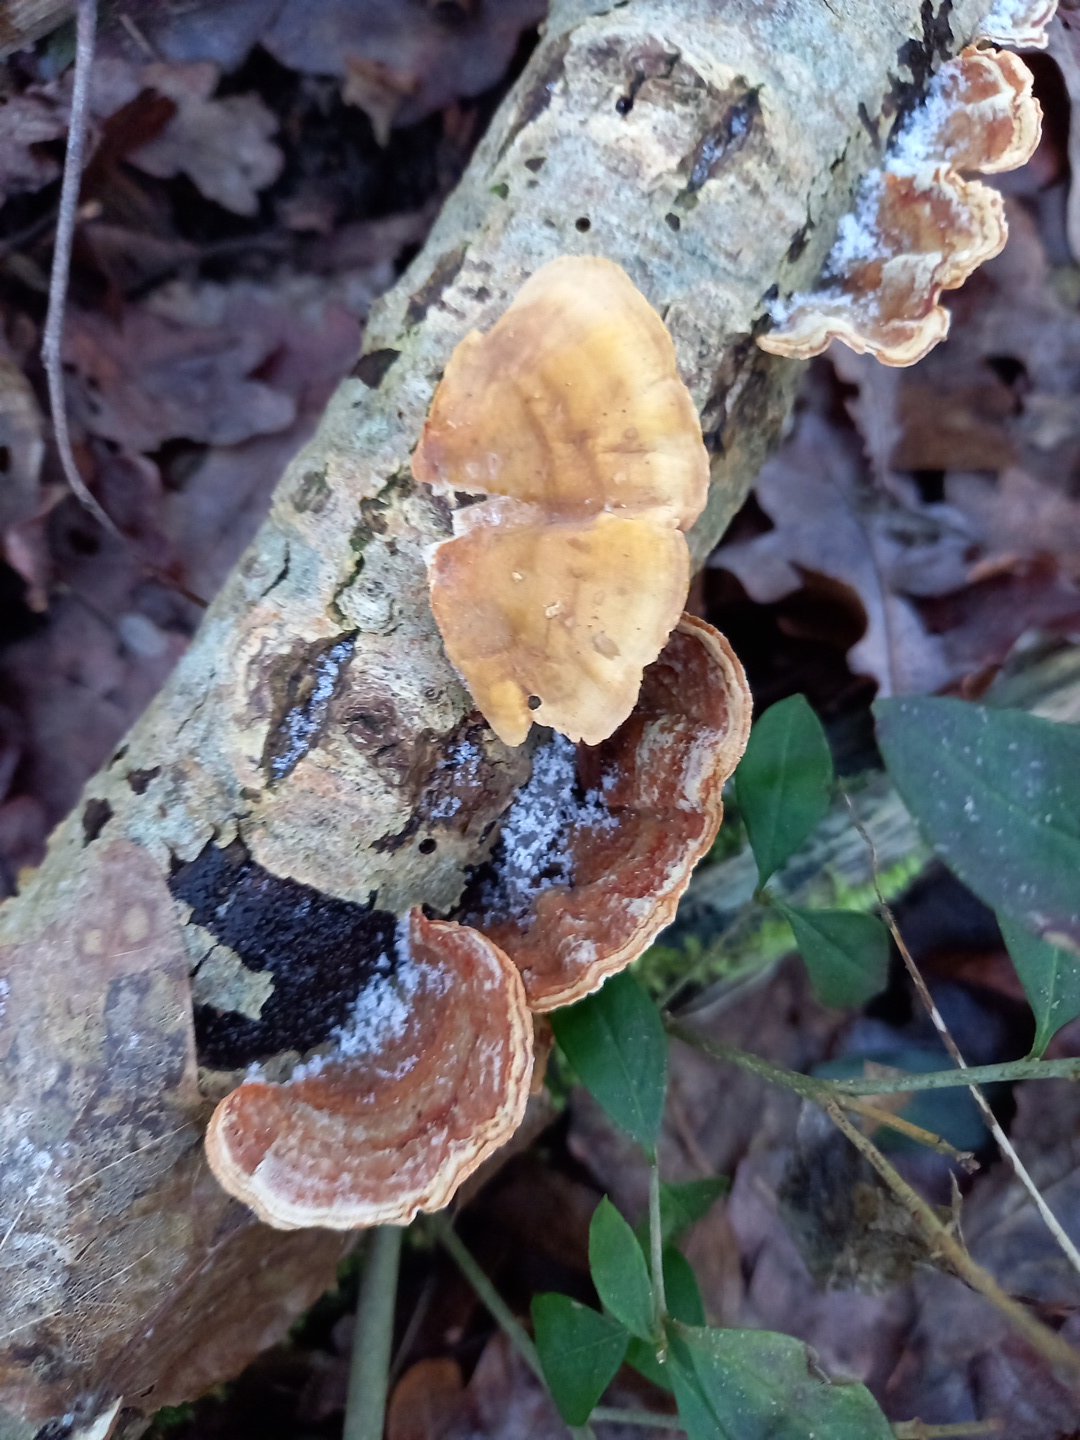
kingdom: Fungi
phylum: Basidiomycota
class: Agaricomycetes
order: Russulales
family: Stereaceae
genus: Stereum
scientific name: Stereum subtomentosum
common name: smuk lædersvamp
